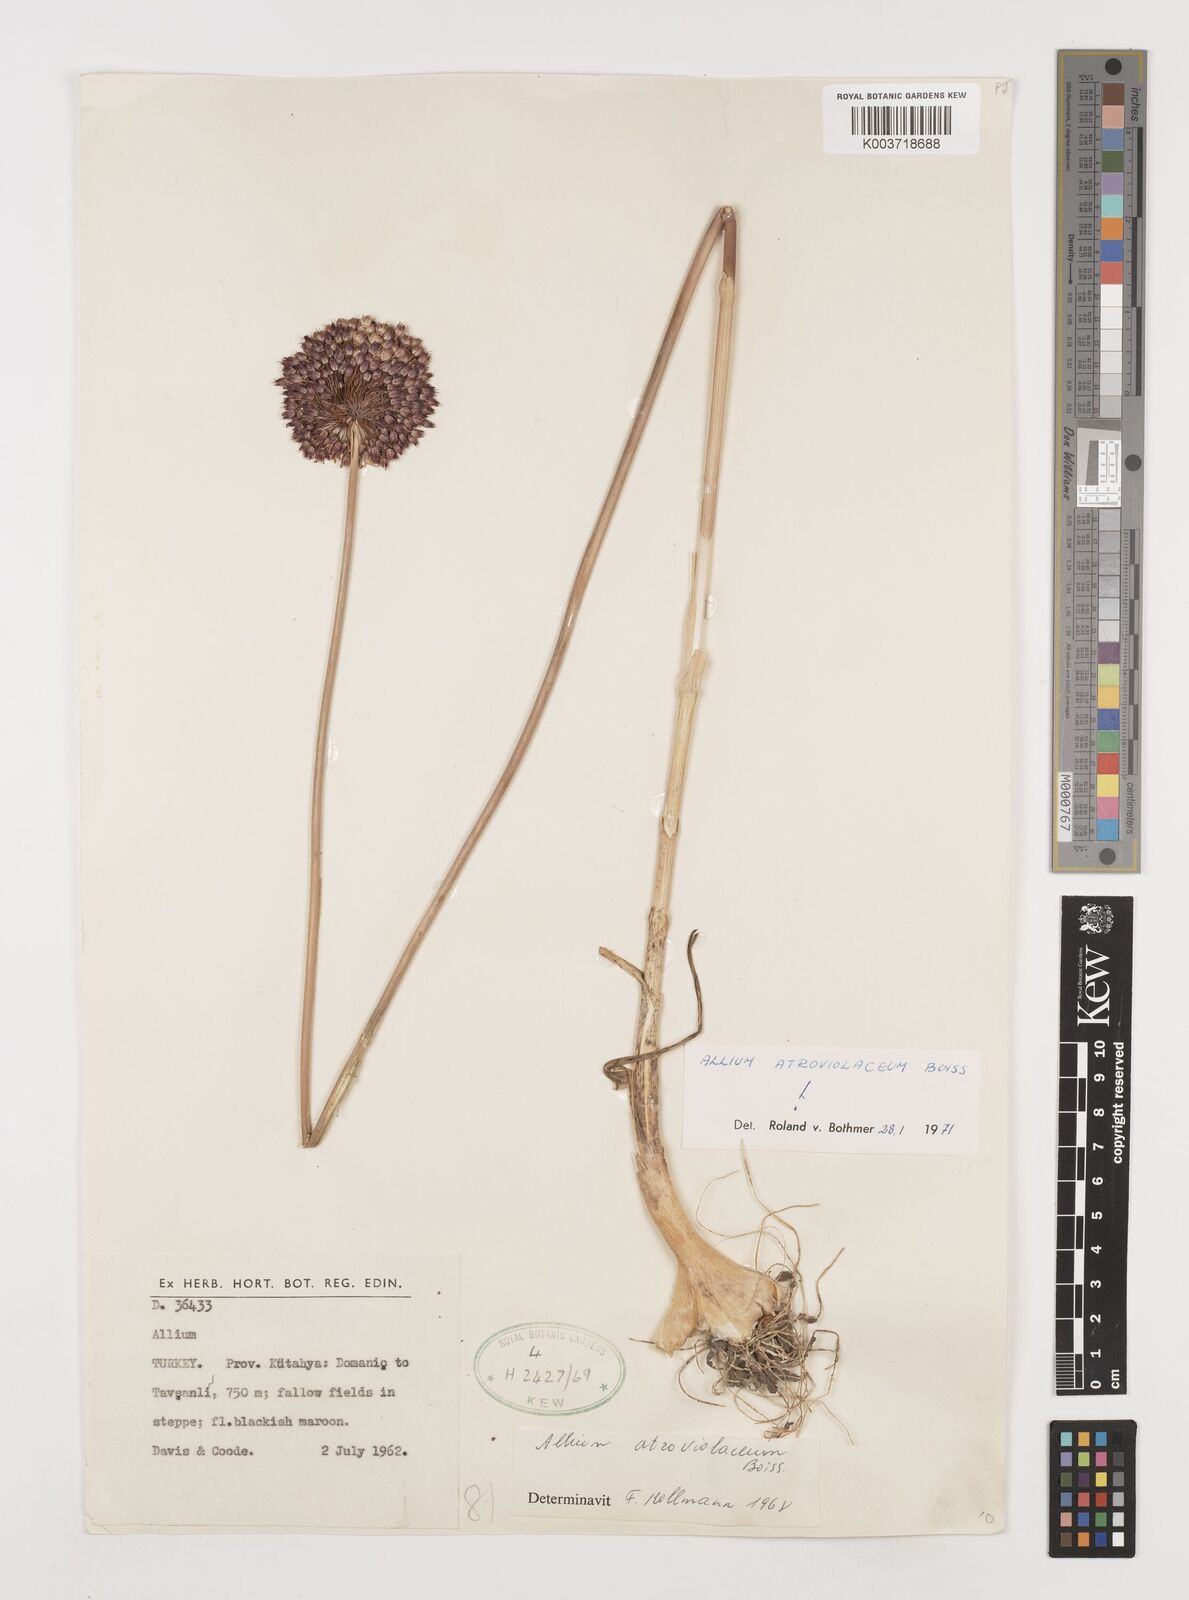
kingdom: Plantae
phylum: Tracheophyta
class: Liliopsida
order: Asparagales
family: Amaryllidaceae
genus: Allium
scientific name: Allium atroviolaceum
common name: Broadleaf wild leek
